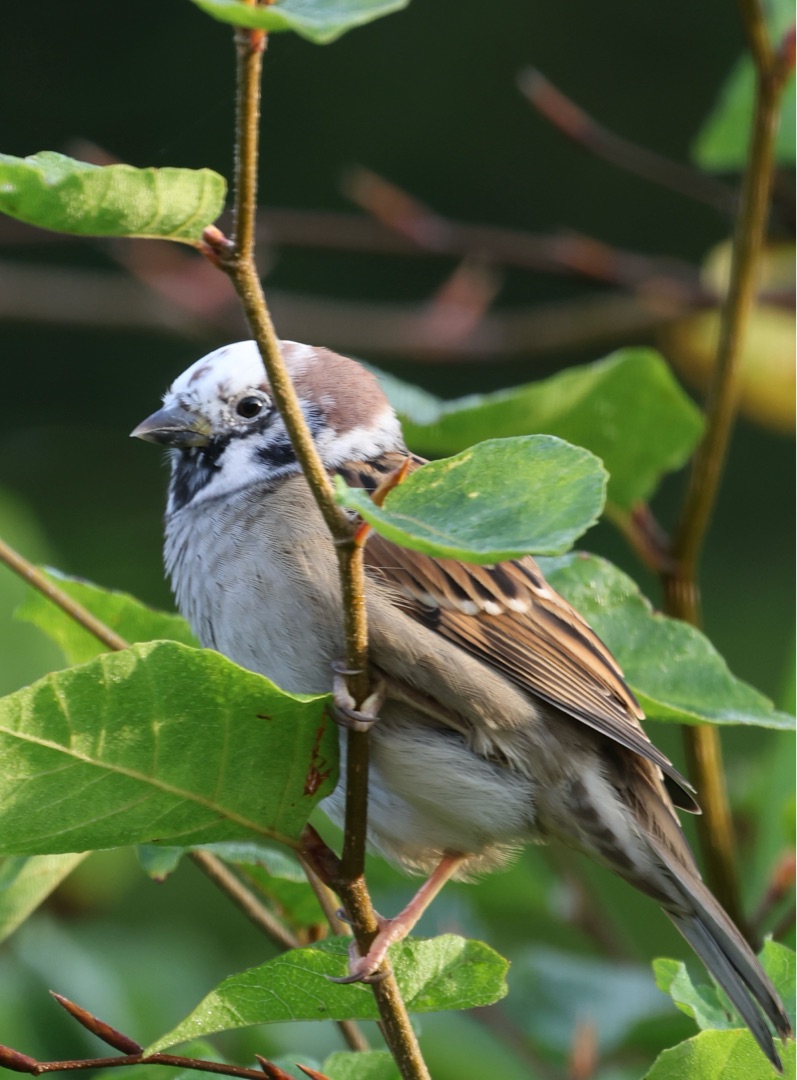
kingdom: Animalia
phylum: Chordata
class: Aves
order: Passeriformes
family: Passeridae
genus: Passer
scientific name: Passer montanus
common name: Skovspurv
